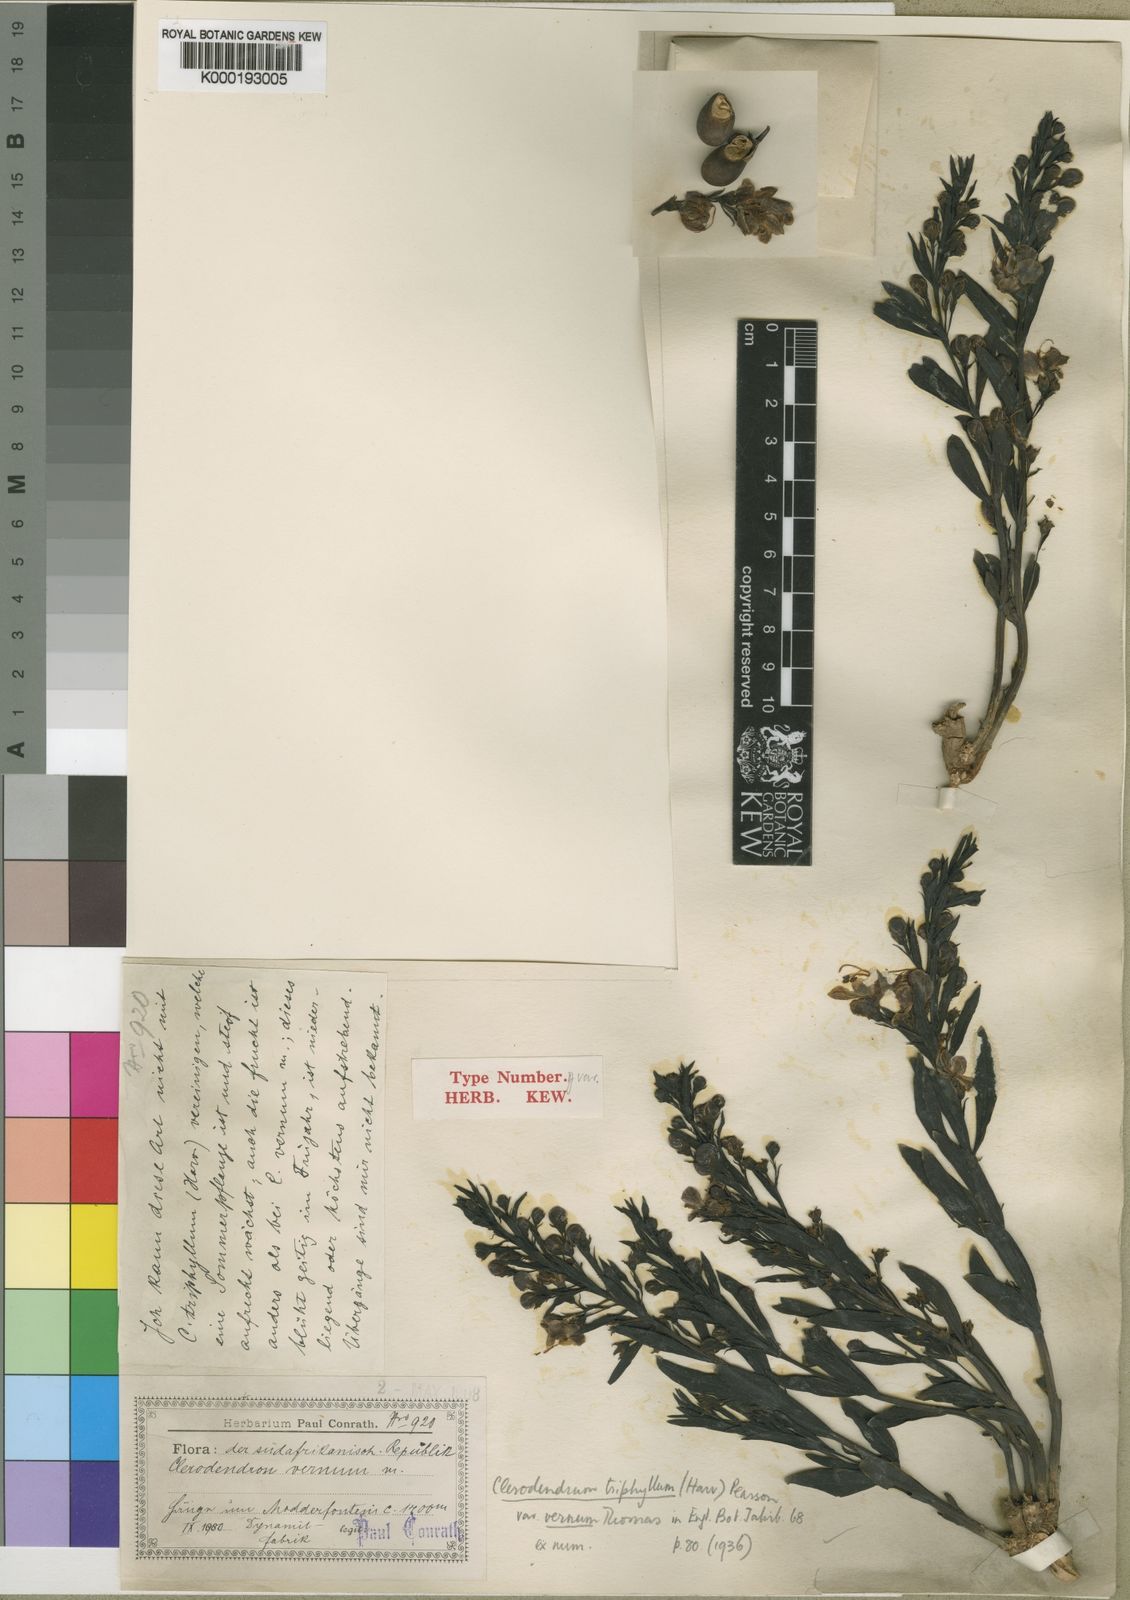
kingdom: Plantae
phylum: Tracheophyta
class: Magnoliopsida
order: Lamiales
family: Lamiaceae
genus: Rotheca
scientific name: Rotheca hirsuta
